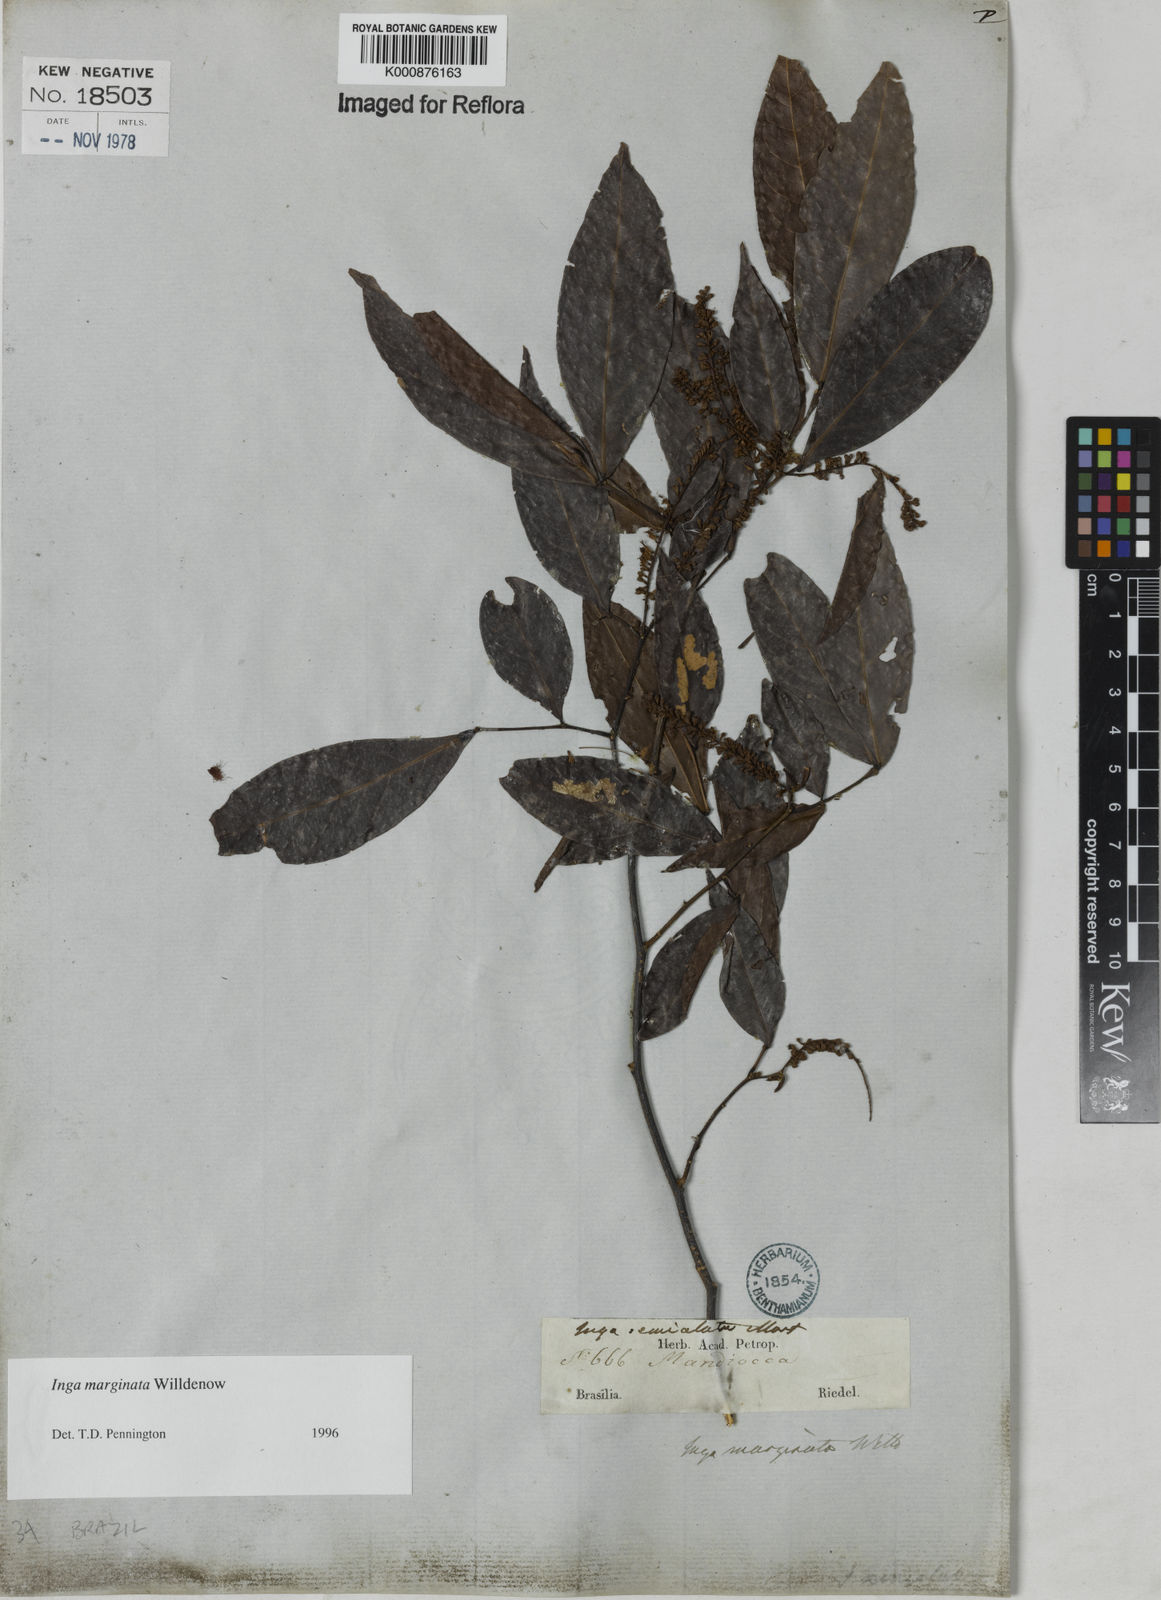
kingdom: Plantae
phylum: Tracheophyta
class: Magnoliopsida
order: Fabales
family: Fabaceae
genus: Inga
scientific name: Inga marginata
